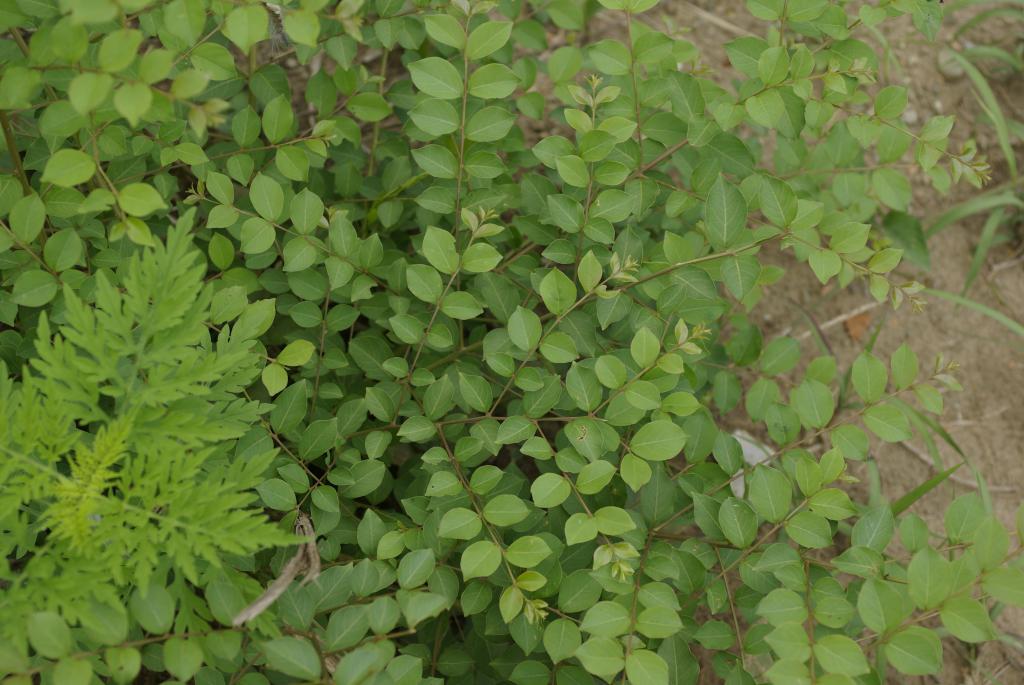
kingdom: Plantae
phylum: Tracheophyta
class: Magnoliopsida
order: Myrtales
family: Lythraceae
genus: Lagerstroemia
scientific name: Lagerstroemia subcostata
